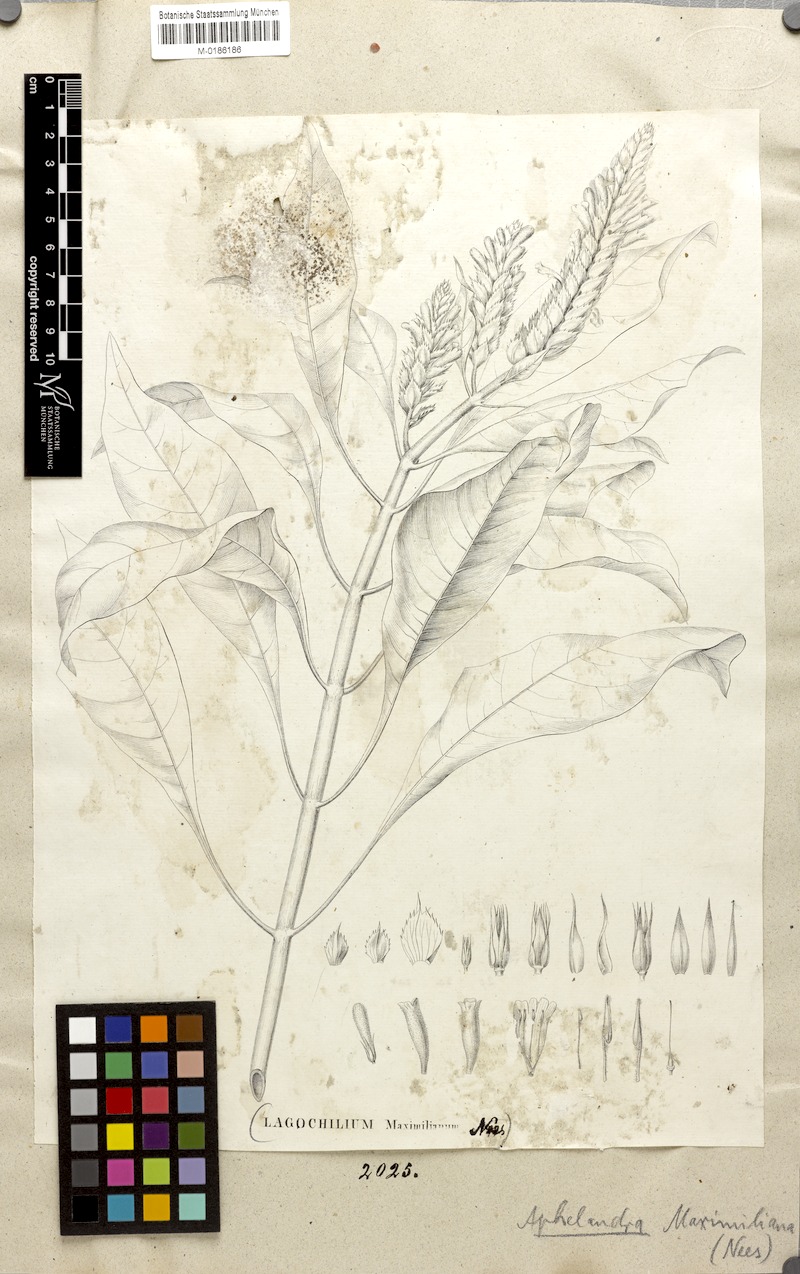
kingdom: Plantae
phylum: Tracheophyta
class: Magnoliopsida
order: Lamiales
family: Acanthaceae
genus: Aphelandra
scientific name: Aphelandra maximiliana
